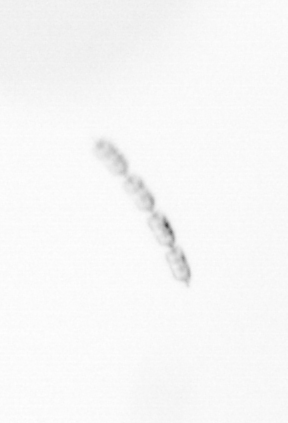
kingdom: Chromista
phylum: Ochrophyta
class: Bacillariophyceae
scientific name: Bacillariophyceae
